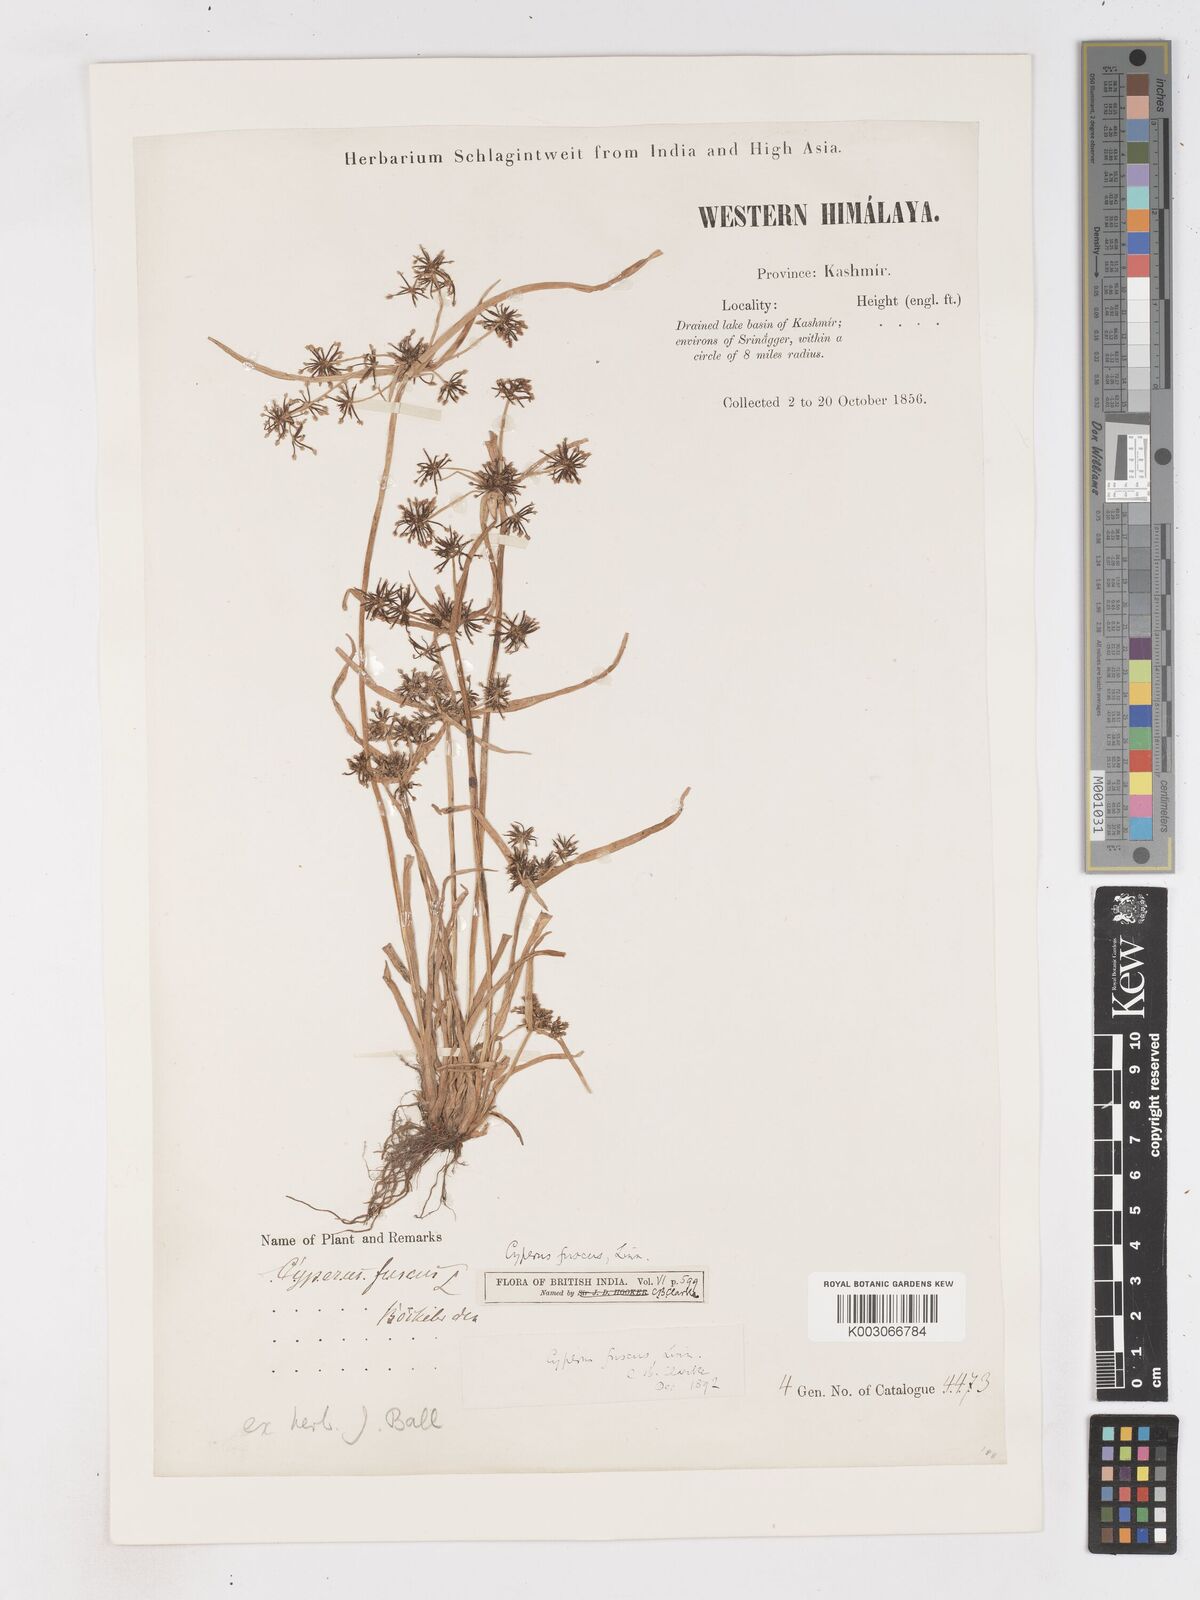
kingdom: Plantae
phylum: Tracheophyta
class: Liliopsida
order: Poales
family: Cyperaceae
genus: Cyperus
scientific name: Cyperus fuscus
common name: Brown galingale
